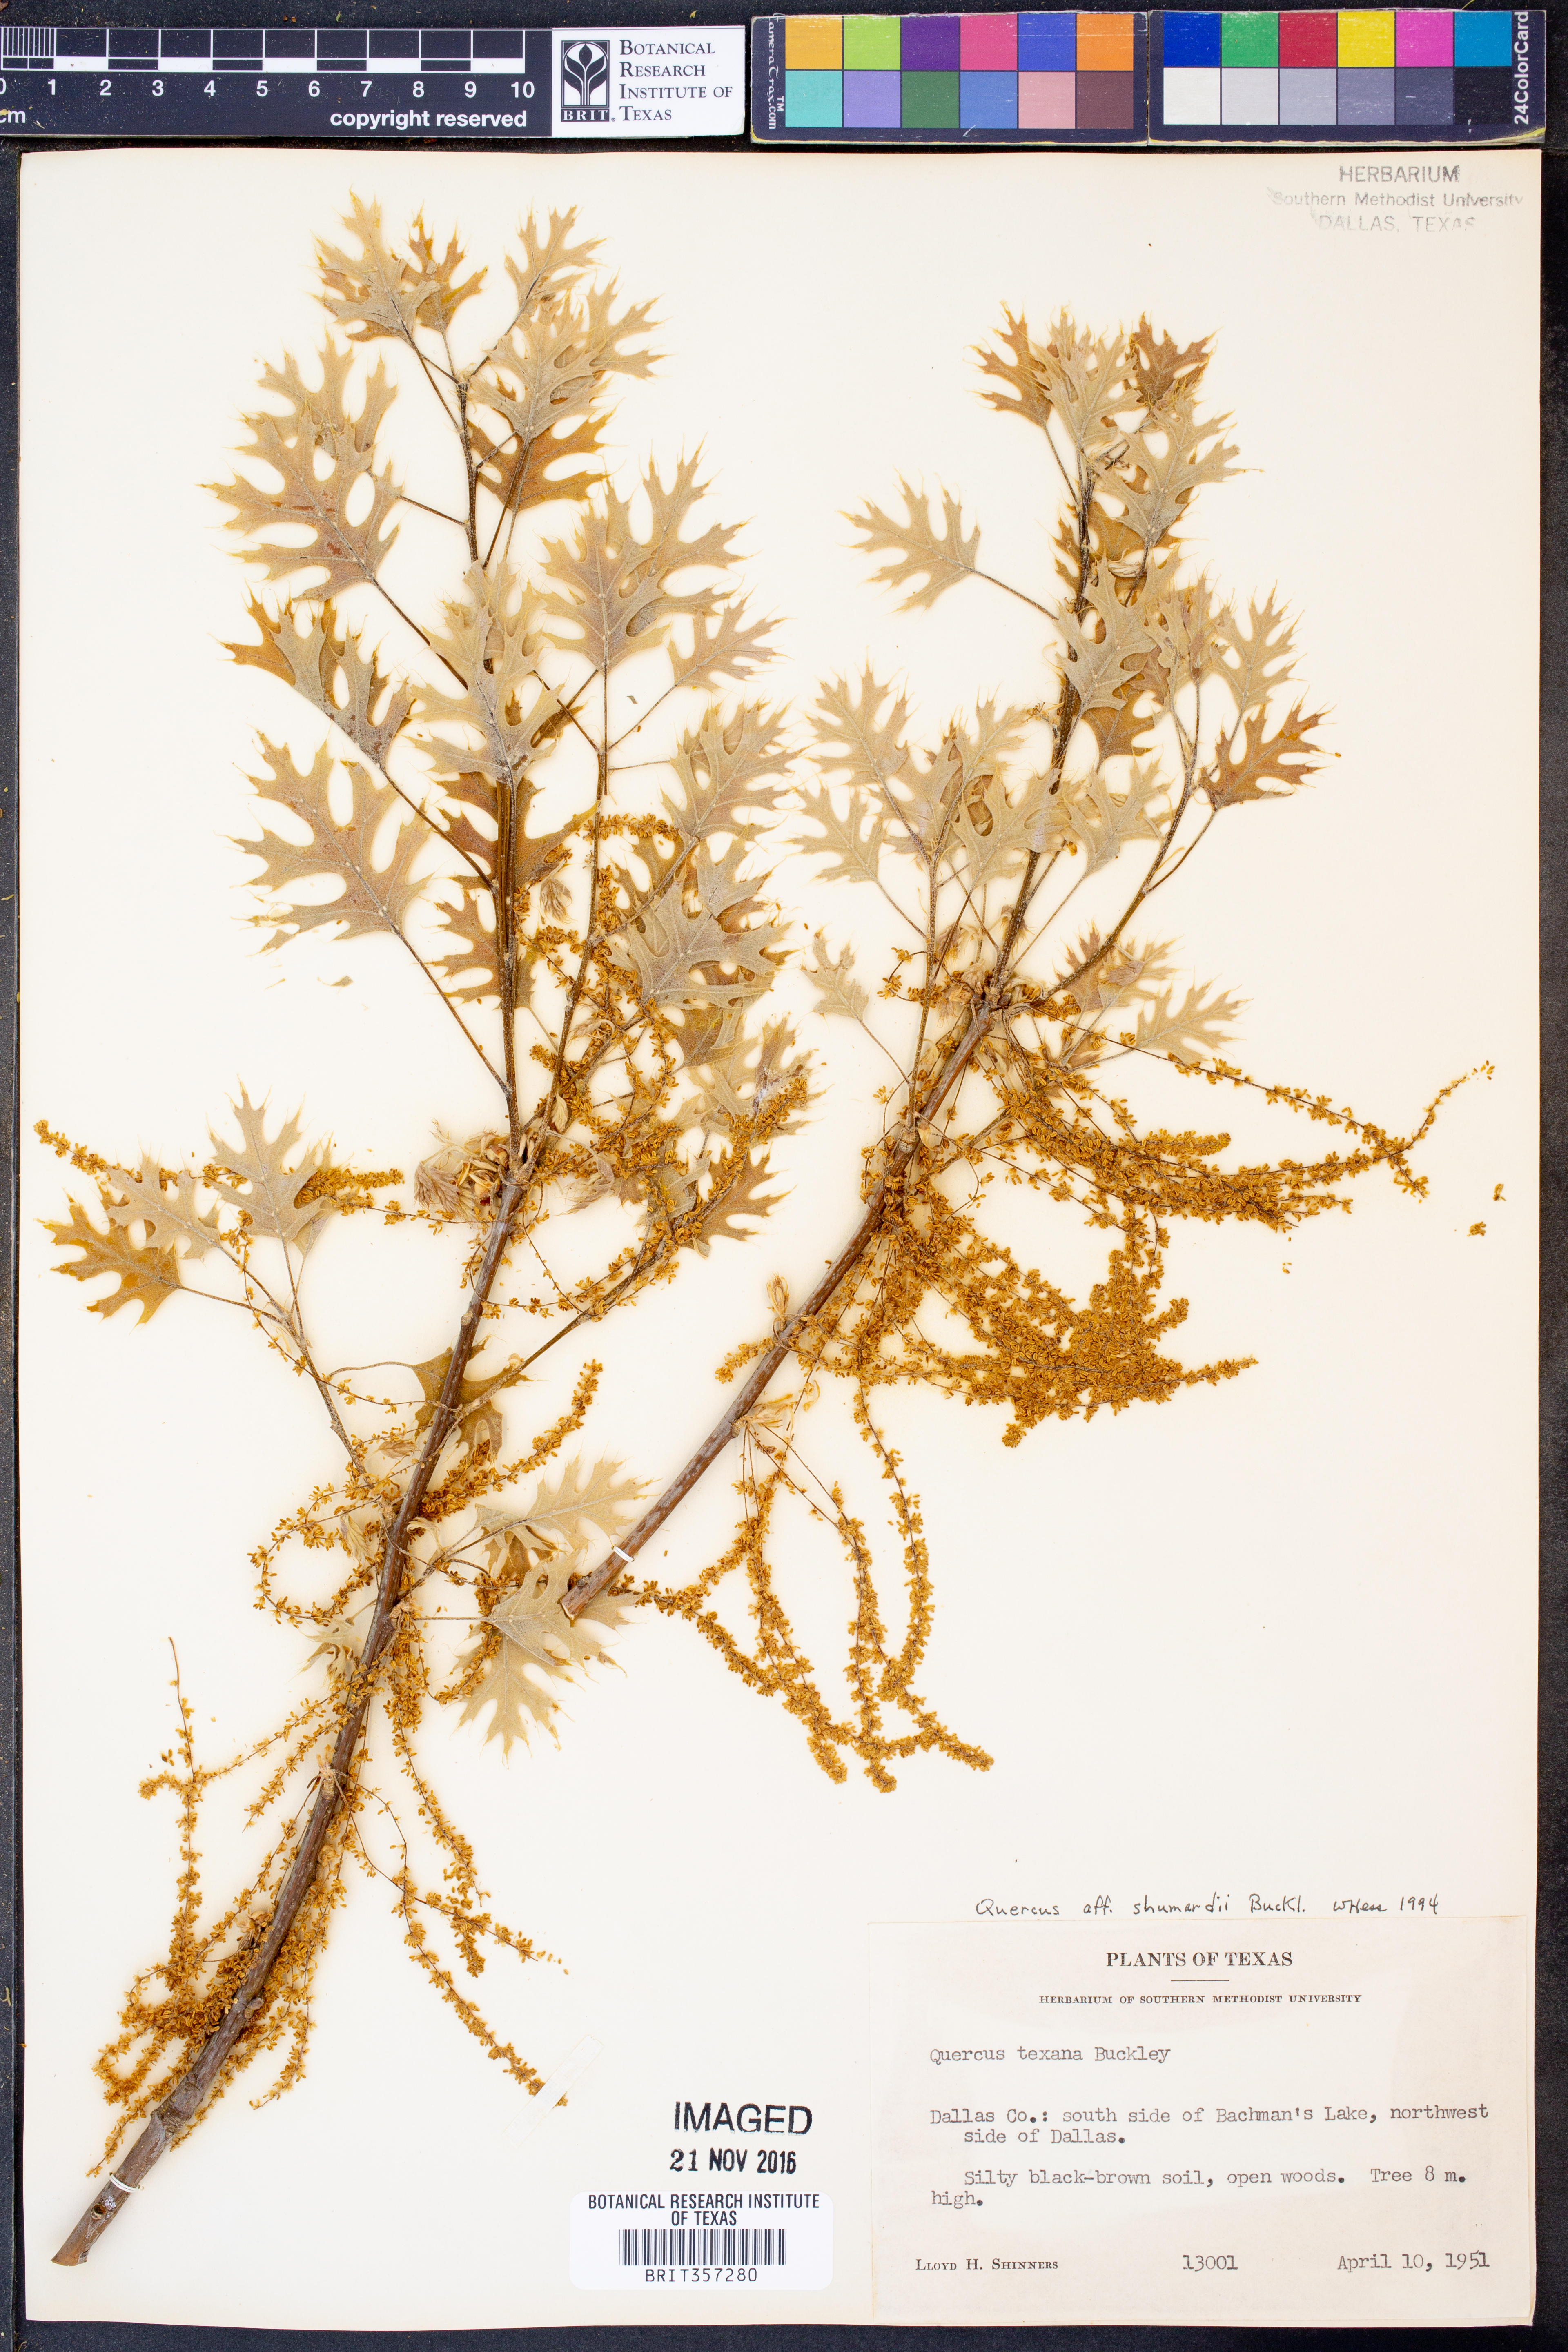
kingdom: Plantae
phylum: Tracheophyta
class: Magnoliopsida
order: Fagales
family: Fagaceae
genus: Quercus
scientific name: Quercus shumardii
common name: Shumard oak
